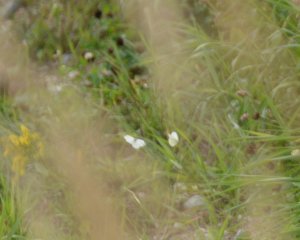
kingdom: Animalia
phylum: Arthropoda
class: Insecta
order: Lepidoptera
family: Pieridae
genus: Pieris
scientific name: Pieris rapae
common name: Cabbage White
